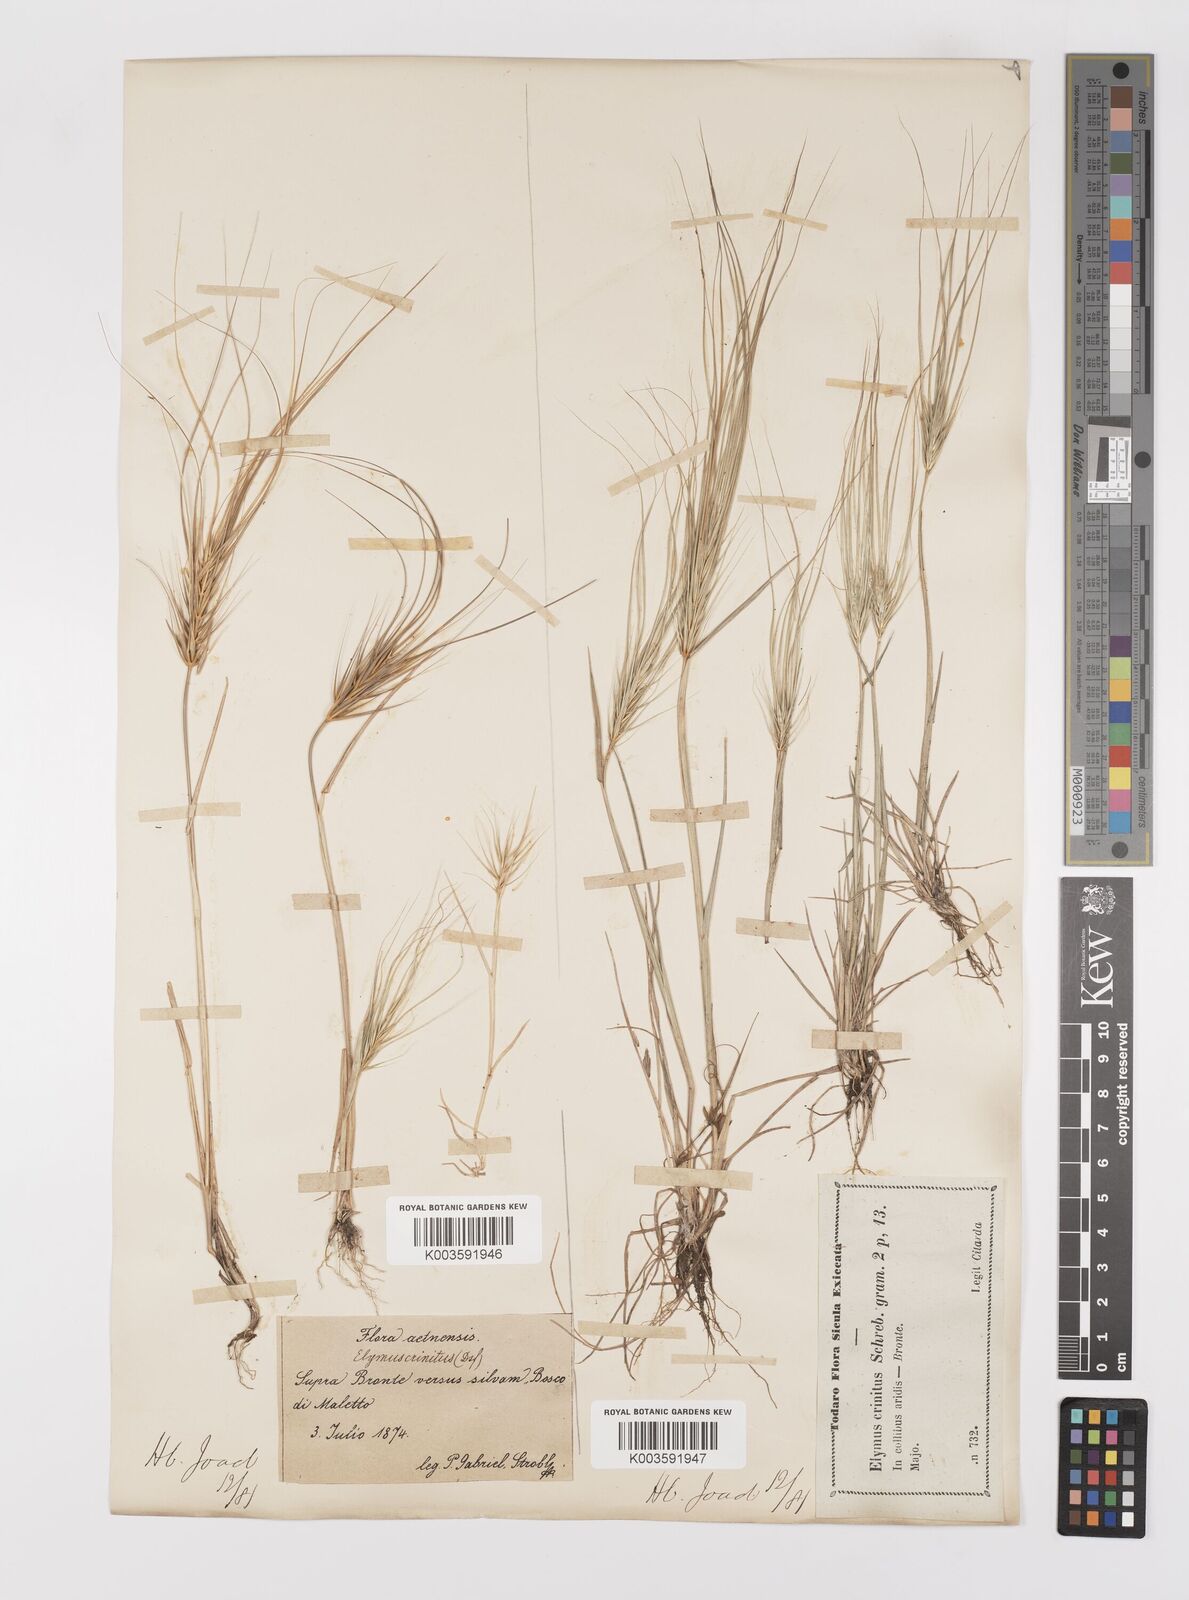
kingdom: Plantae
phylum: Tracheophyta
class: Liliopsida
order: Poales
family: Poaceae
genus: Taeniatherum
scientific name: Taeniatherum caput-medusae
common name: Medusahead
